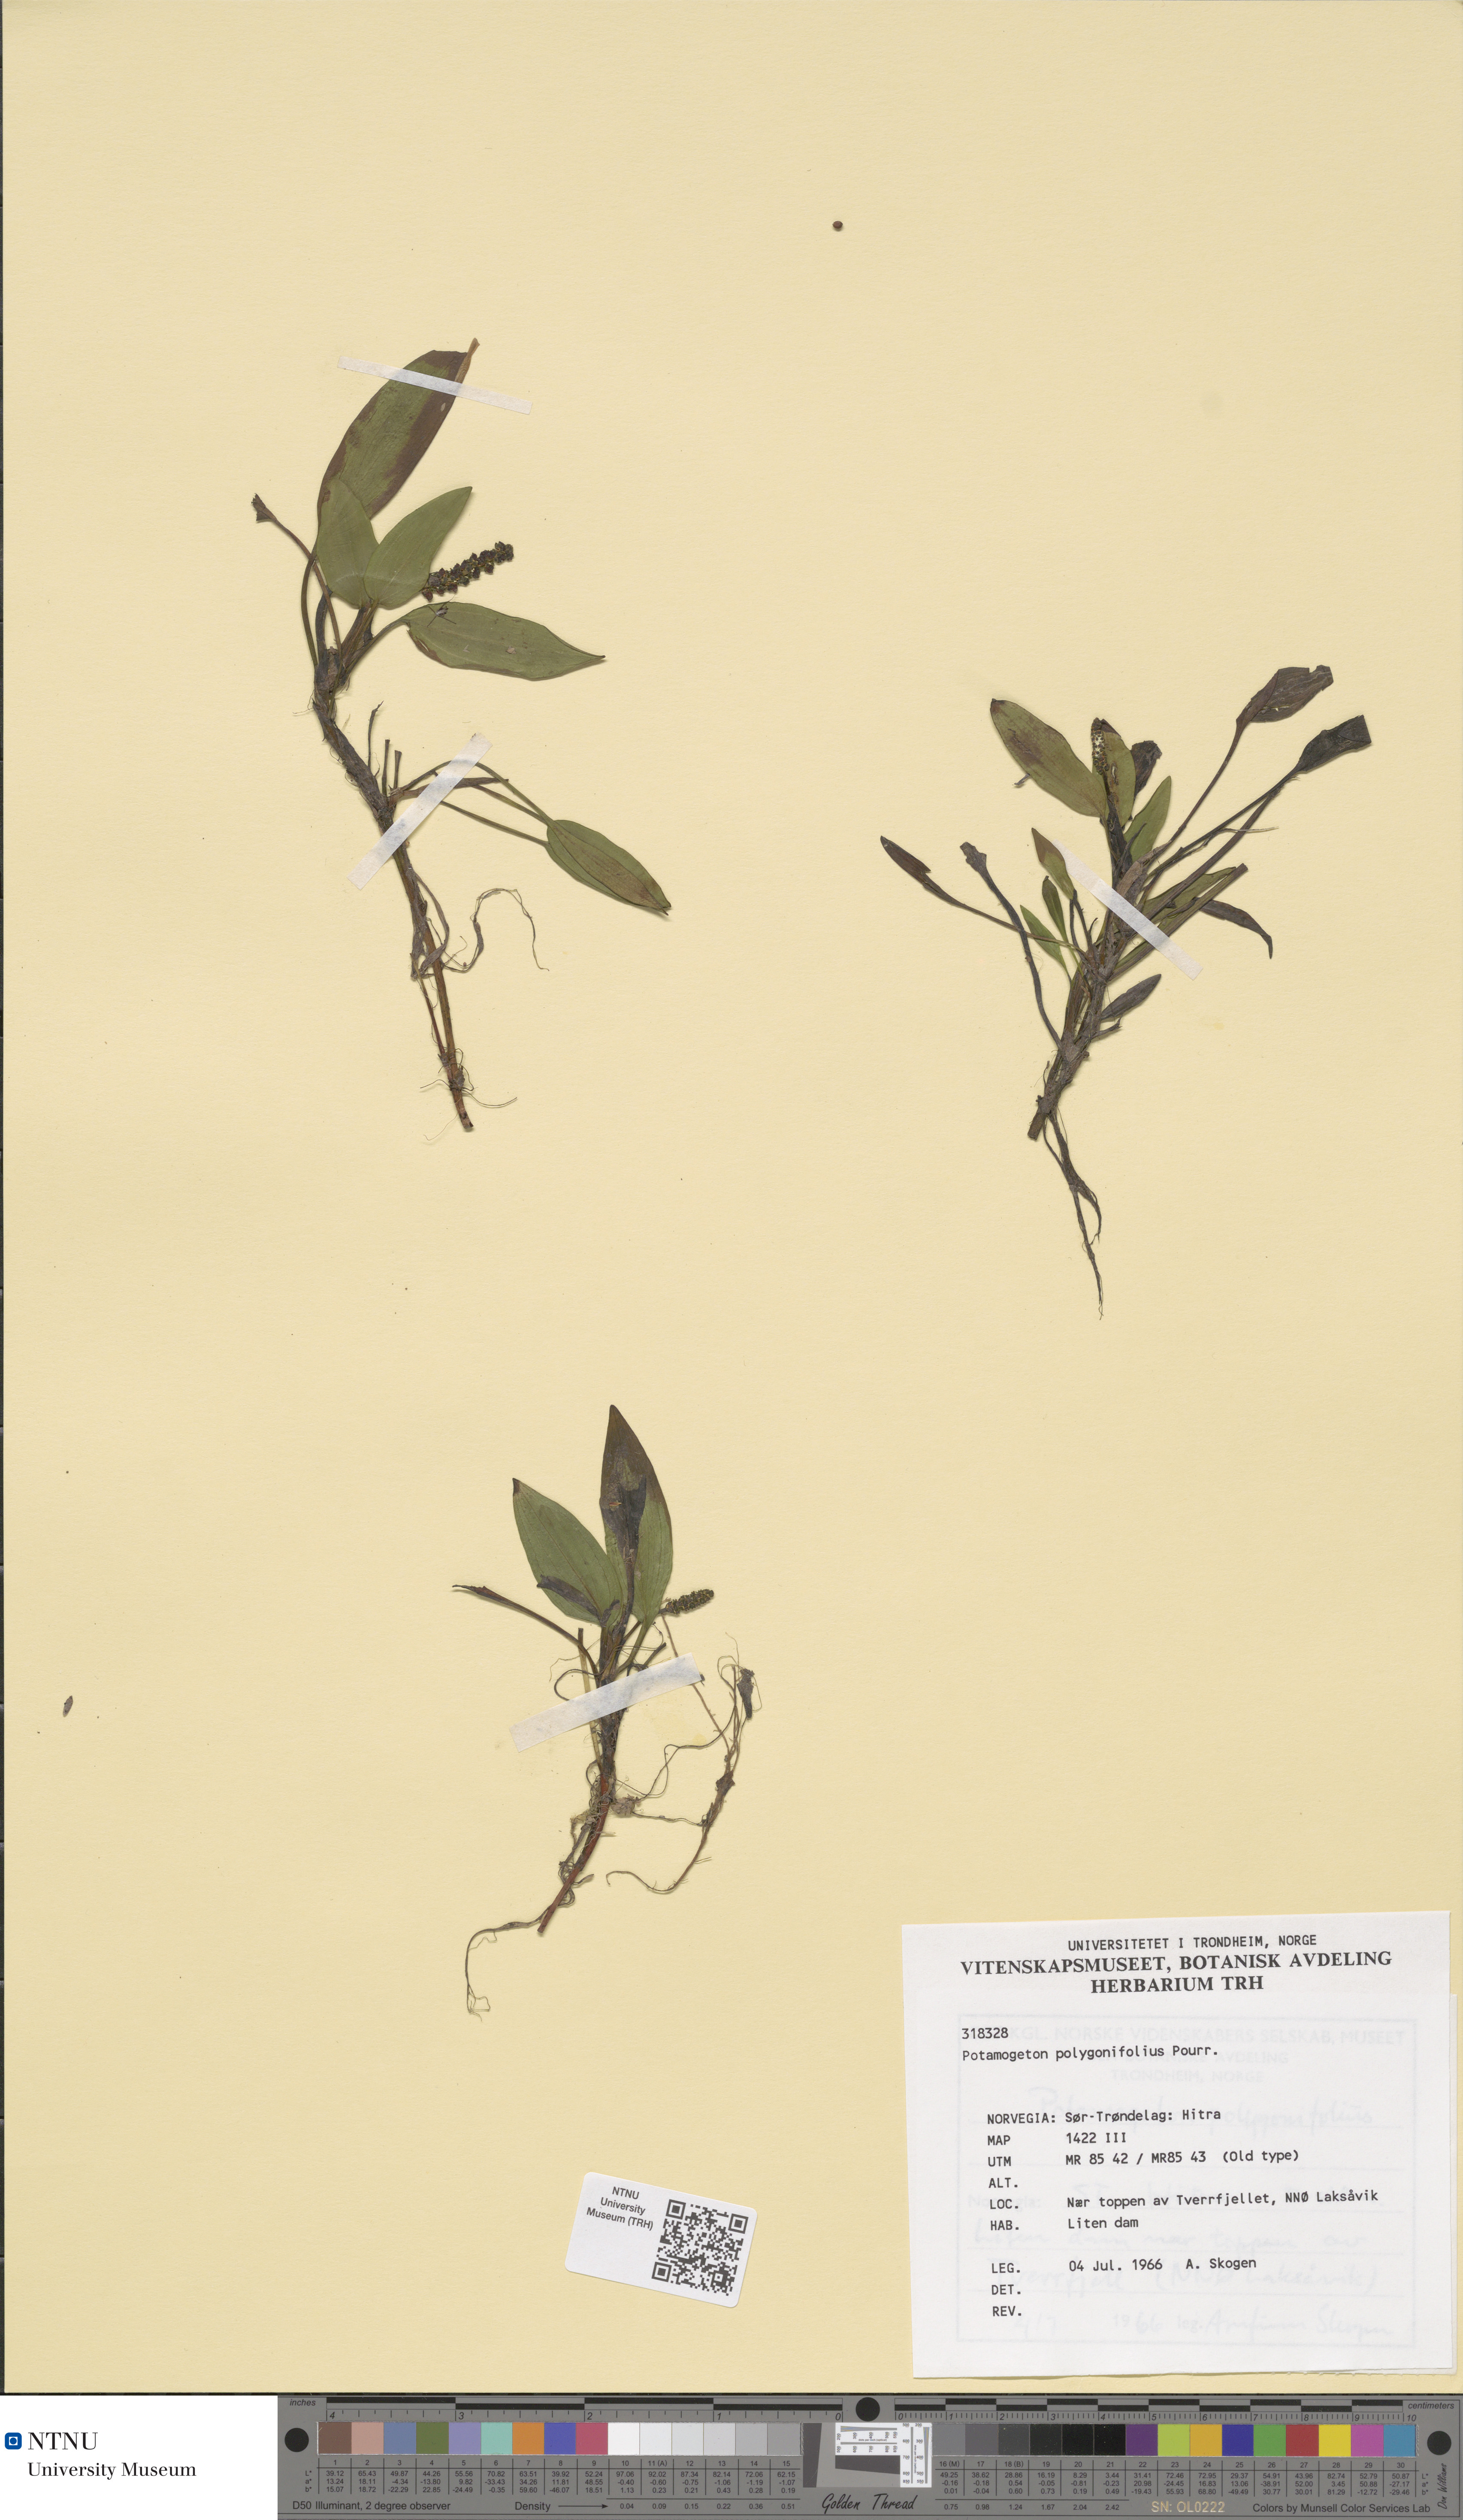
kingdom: Plantae
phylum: Tracheophyta
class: Liliopsida
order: Alismatales
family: Potamogetonaceae
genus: Potamogeton
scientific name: Potamogeton polygonifolius
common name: Bog pondweed
